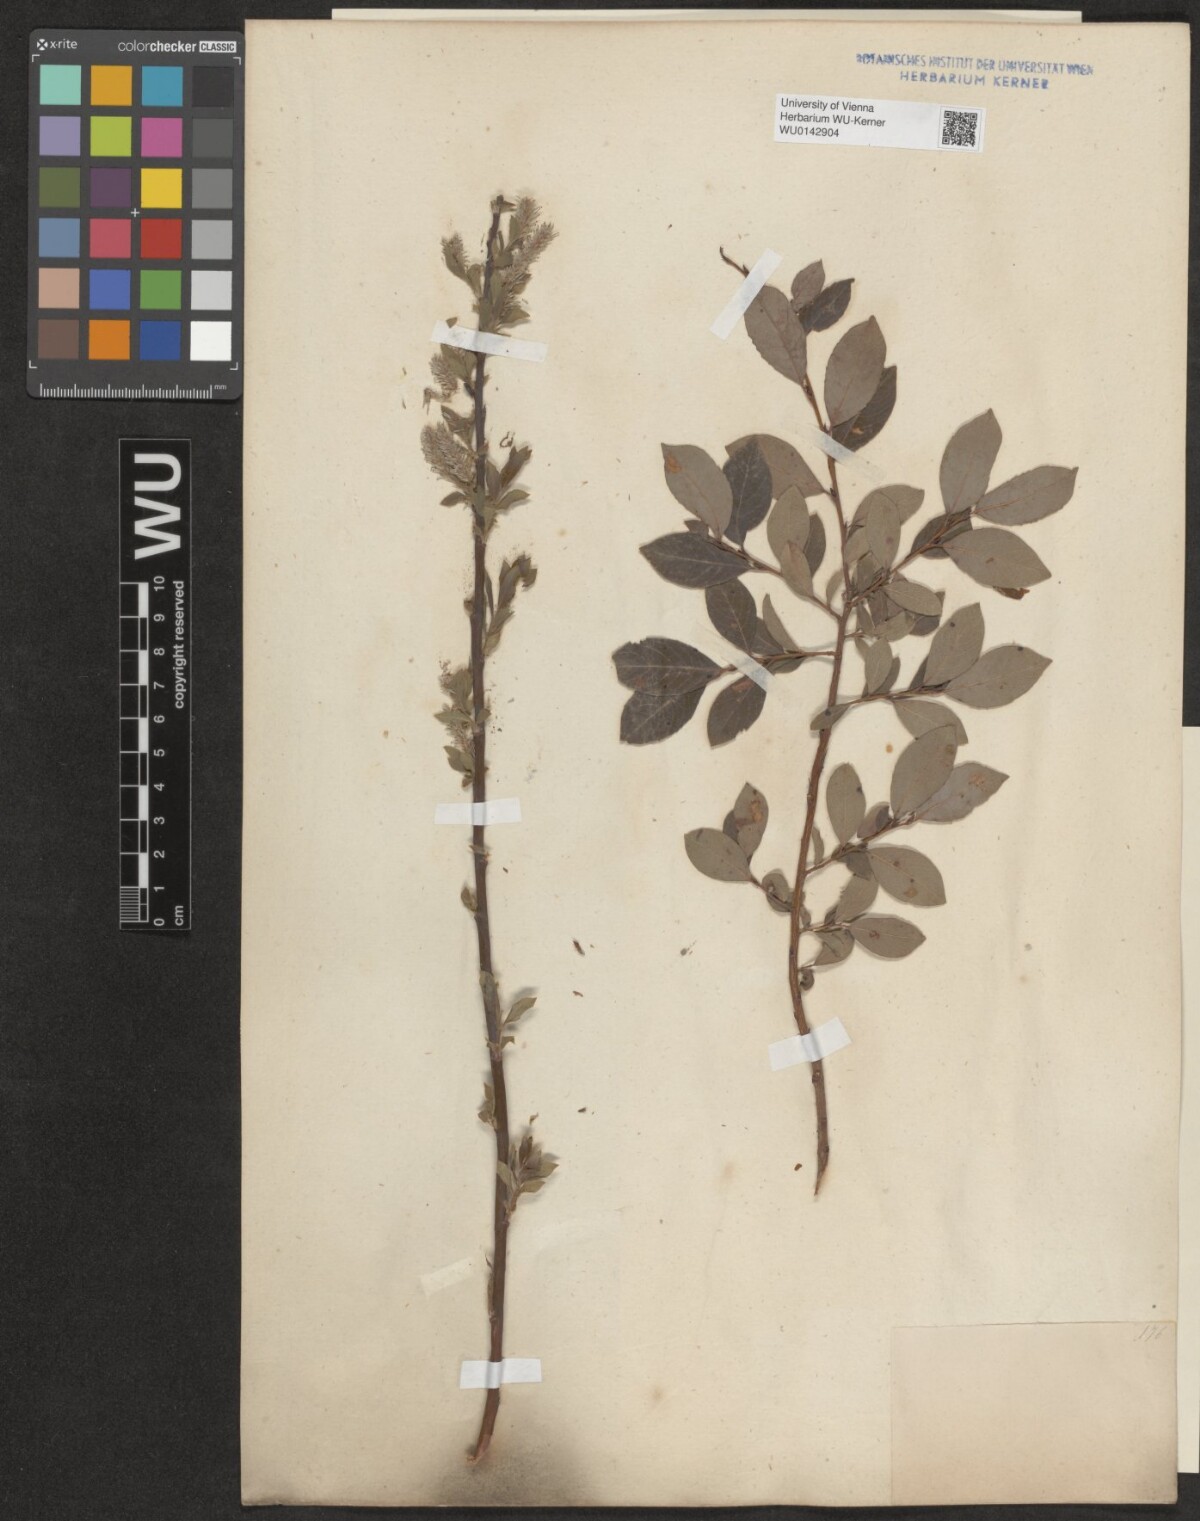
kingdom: Plantae
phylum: Tracheophyta
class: Magnoliopsida
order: Malpighiales
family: Salicaceae
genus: Salix
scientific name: Salix starkeana
